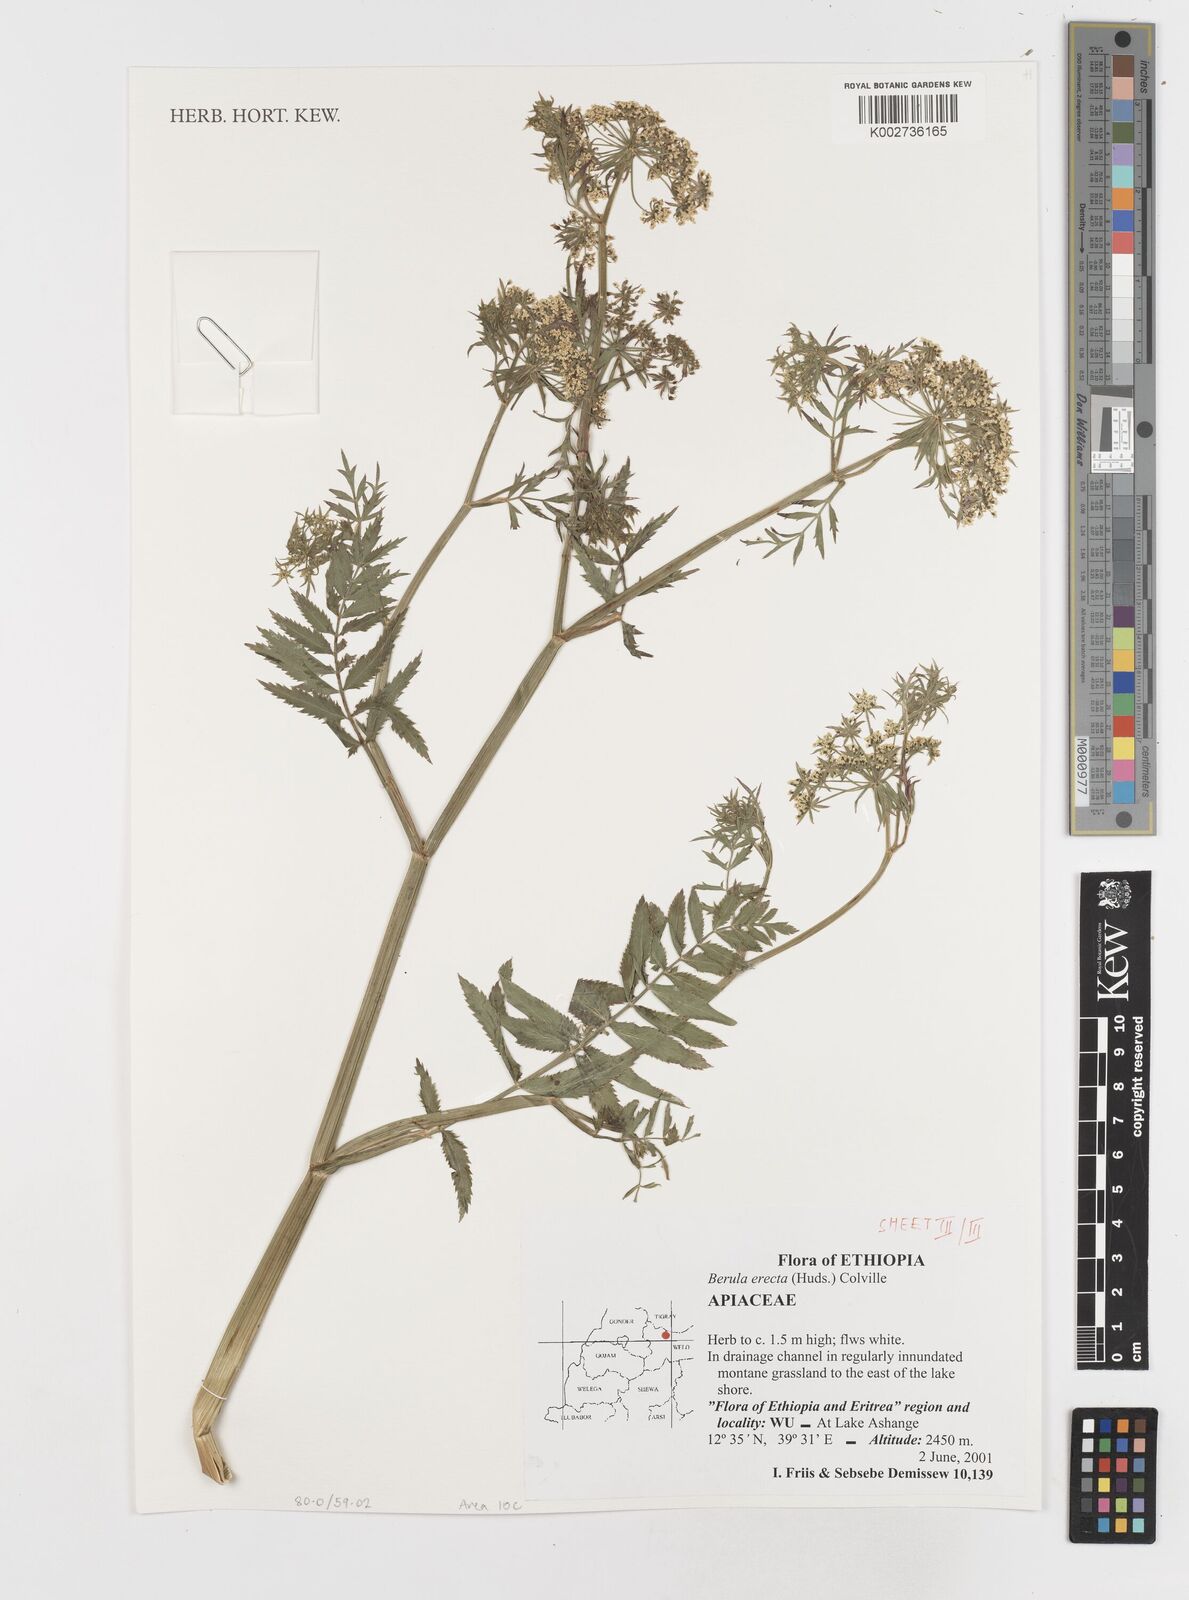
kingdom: Plantae
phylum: Tracheophyta
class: Magnoliopsida
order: Apiales
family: Apiaceae
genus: Berula
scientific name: Berula erecta
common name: Lesser water-parsnip
